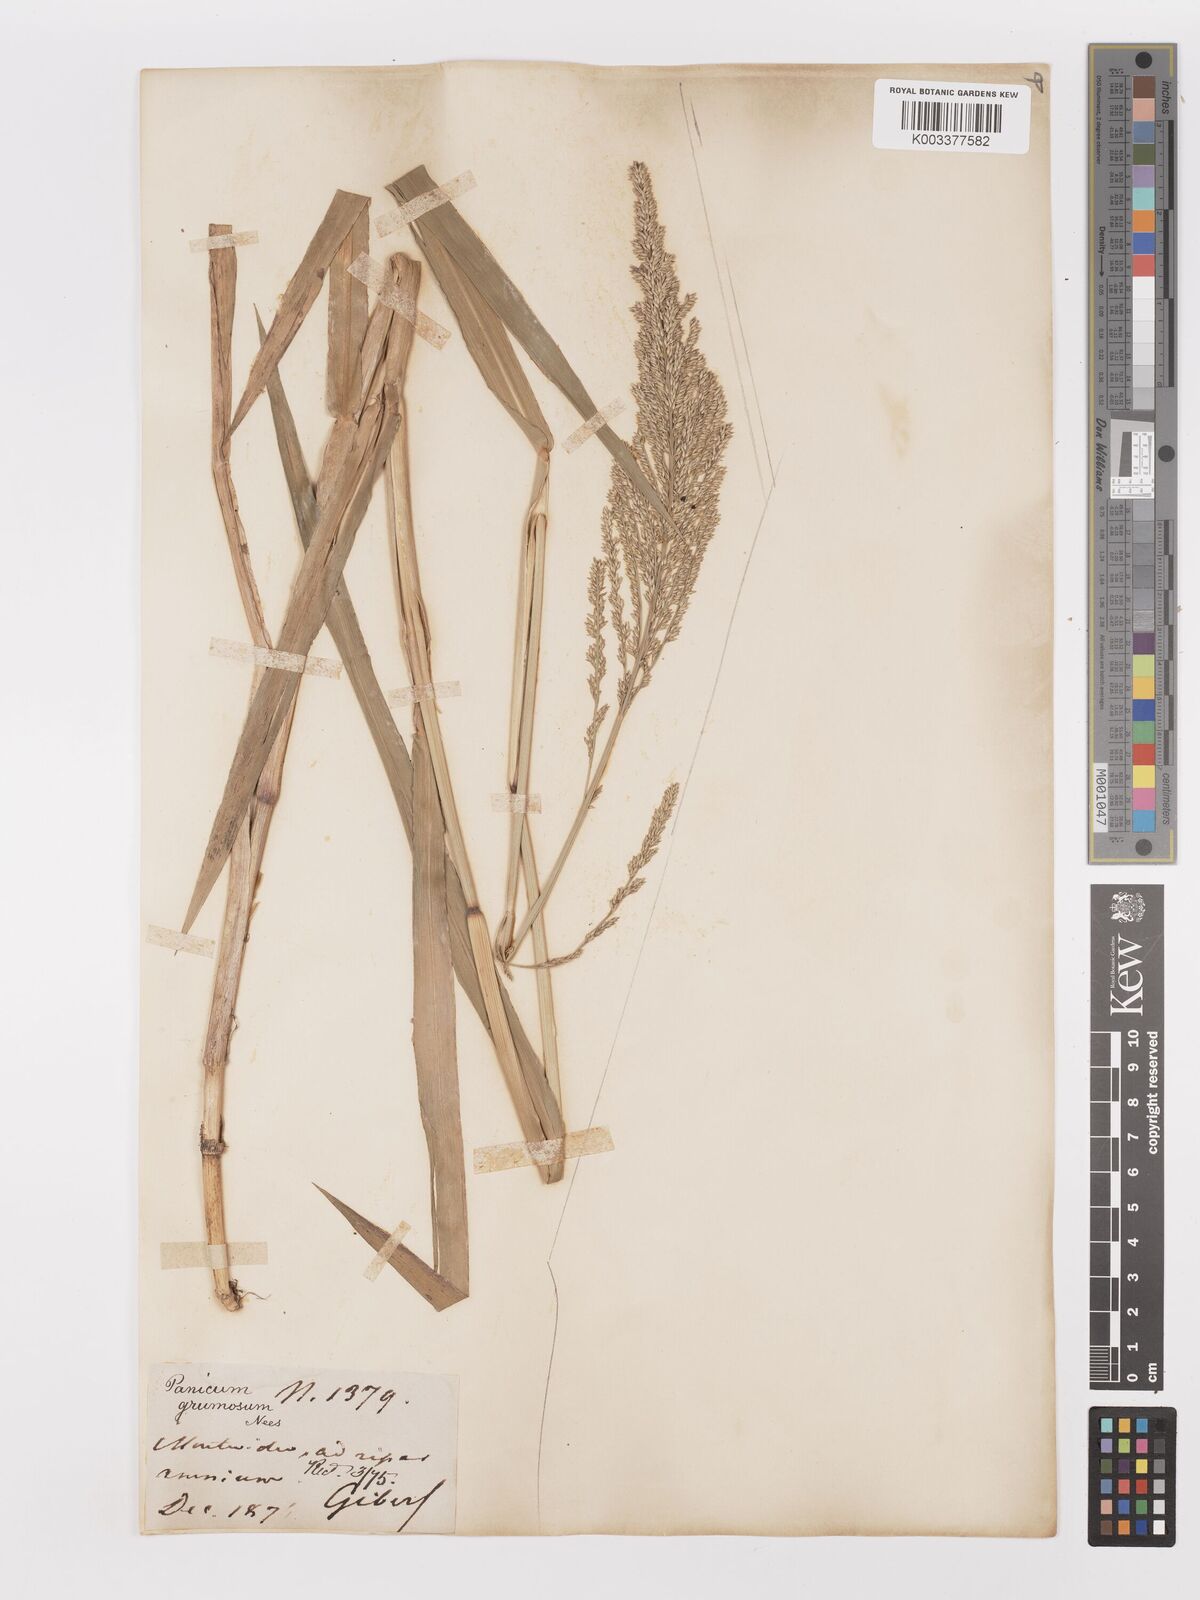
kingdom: Plantae
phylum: Tracheophyta
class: Liliopsida
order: Poales
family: Poaceae
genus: Urochloa
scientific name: Urochloa reptans
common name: Sprawling signalgrass
